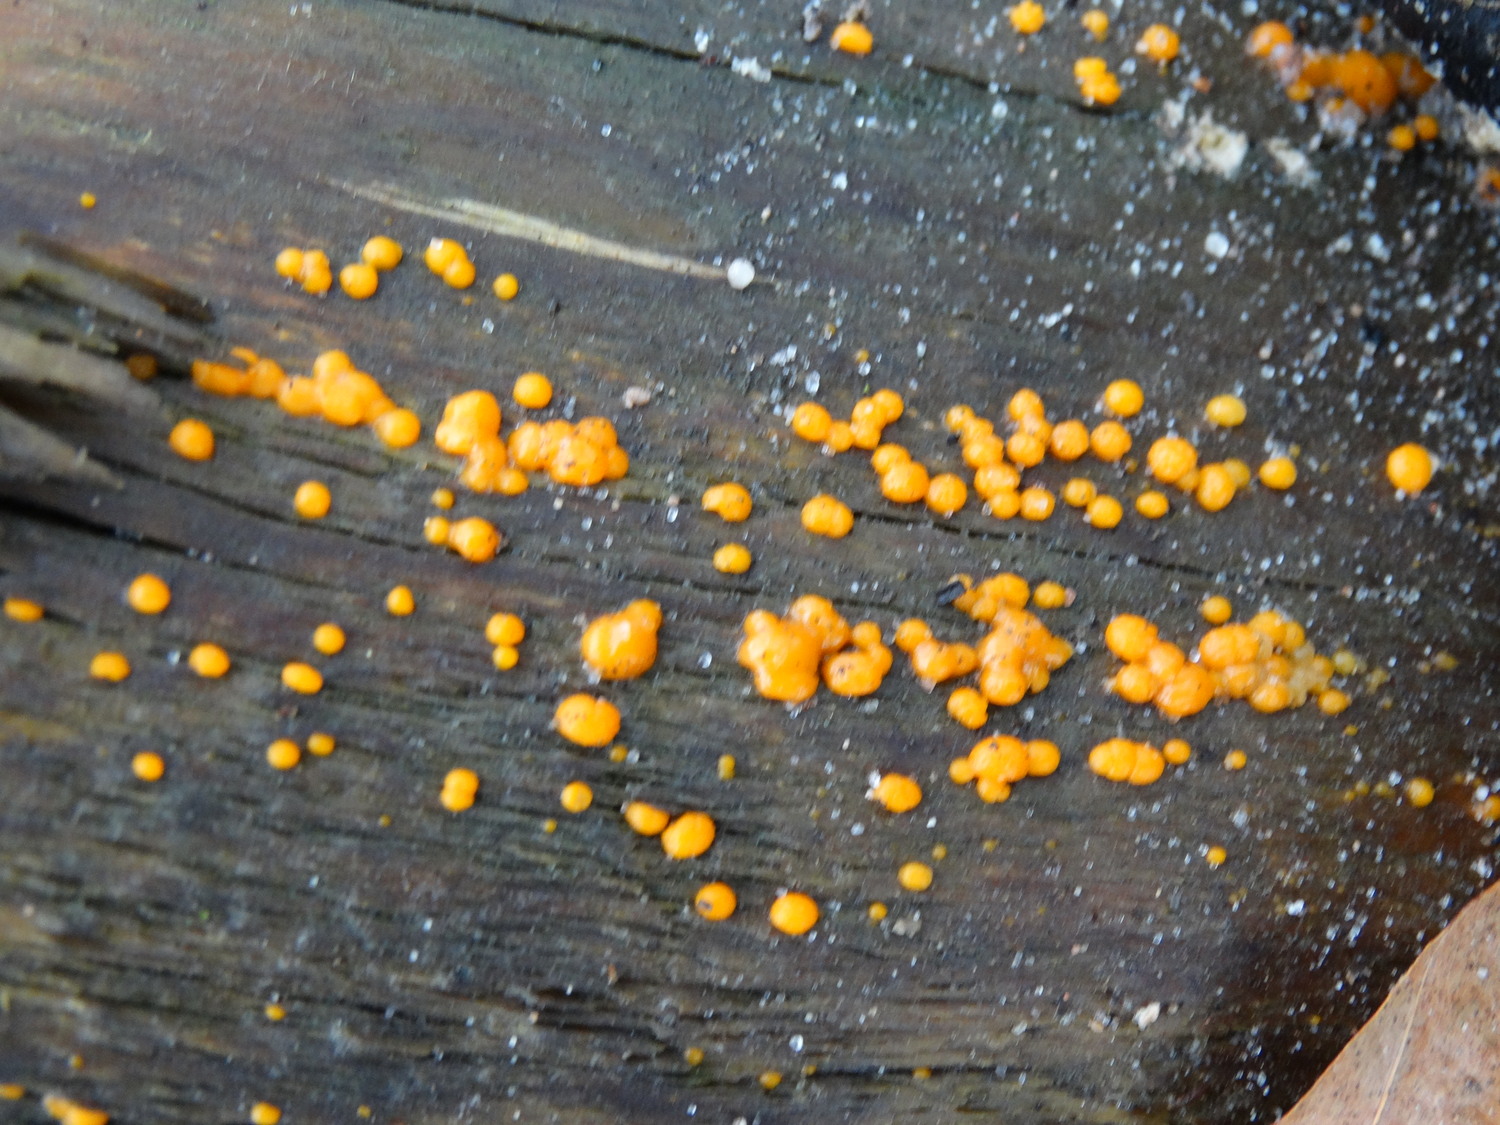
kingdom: Fungi
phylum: Basidiomycota
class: Dacrymycetes
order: Dacrymycetales
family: Dacrymycetaceae
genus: Dacrymyces
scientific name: Dacrymyces stillatus
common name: almindelig tåresvamp
